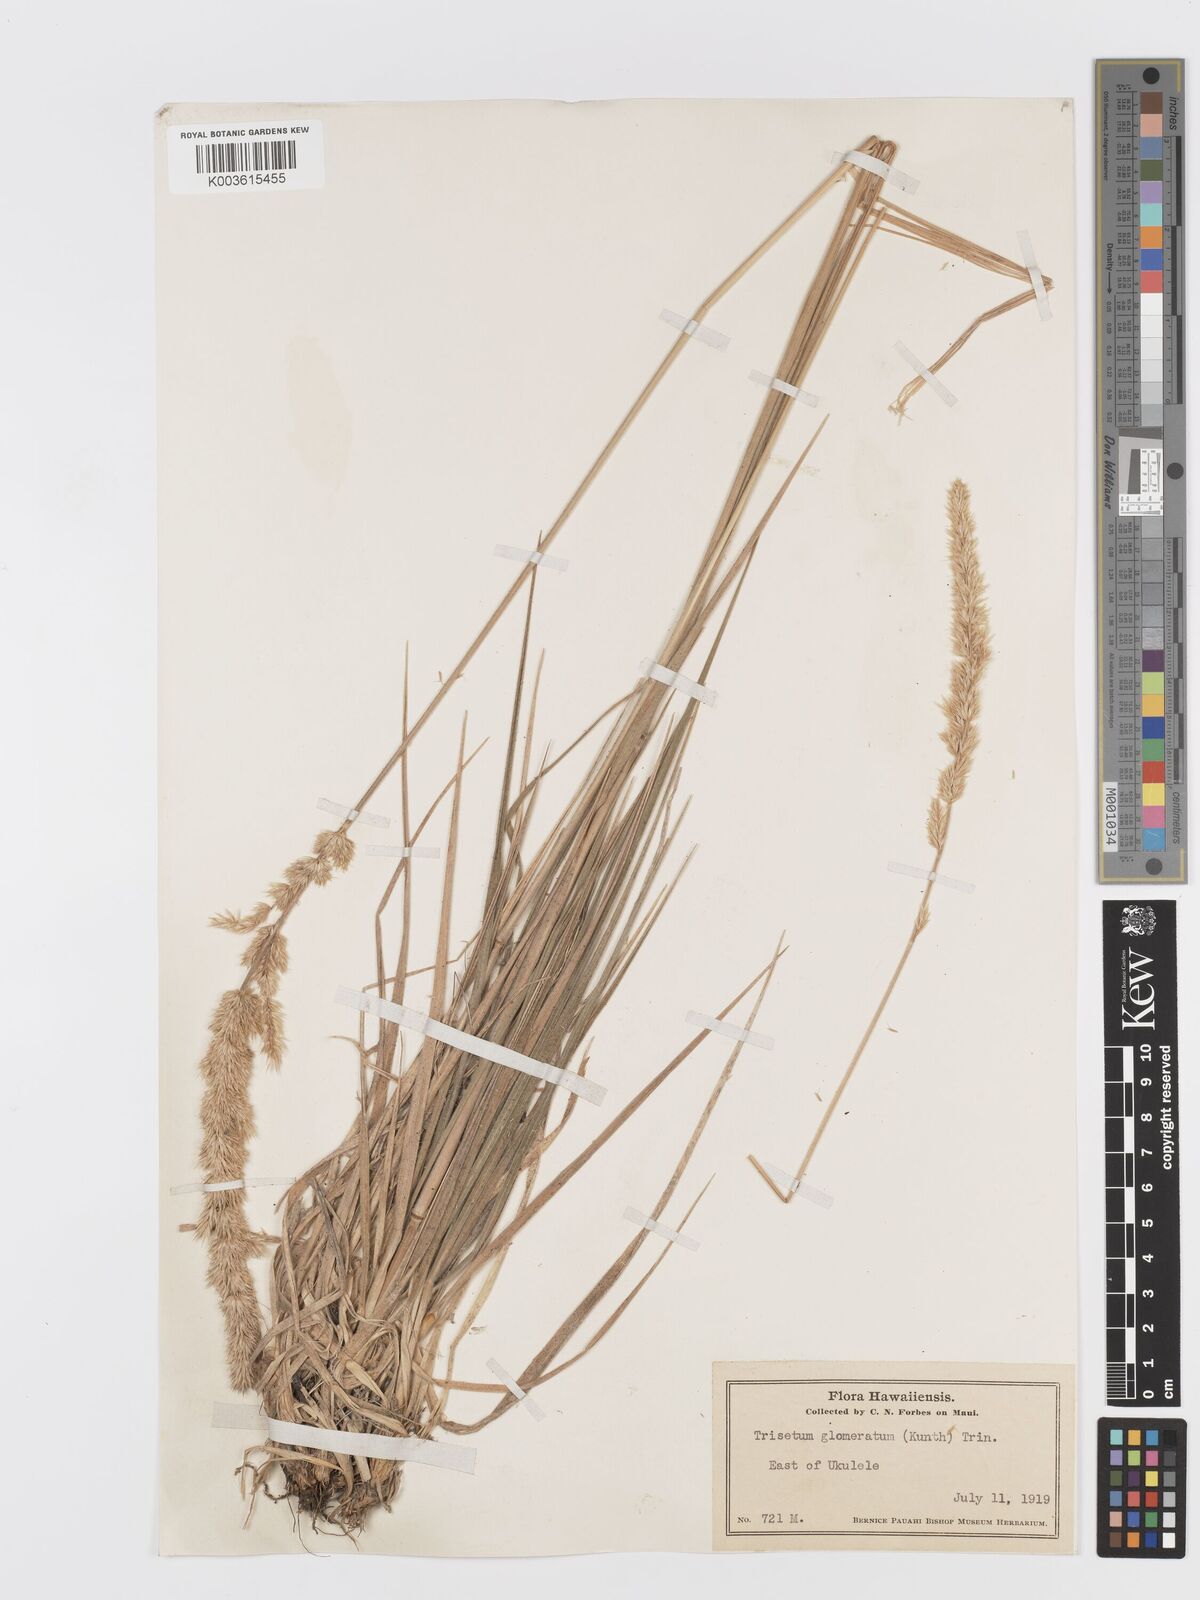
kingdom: Plantae
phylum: Tracheophyta
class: Liliopsida
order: Poales
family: Poaceae
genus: Trisetum
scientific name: Trisetum glomeratum
